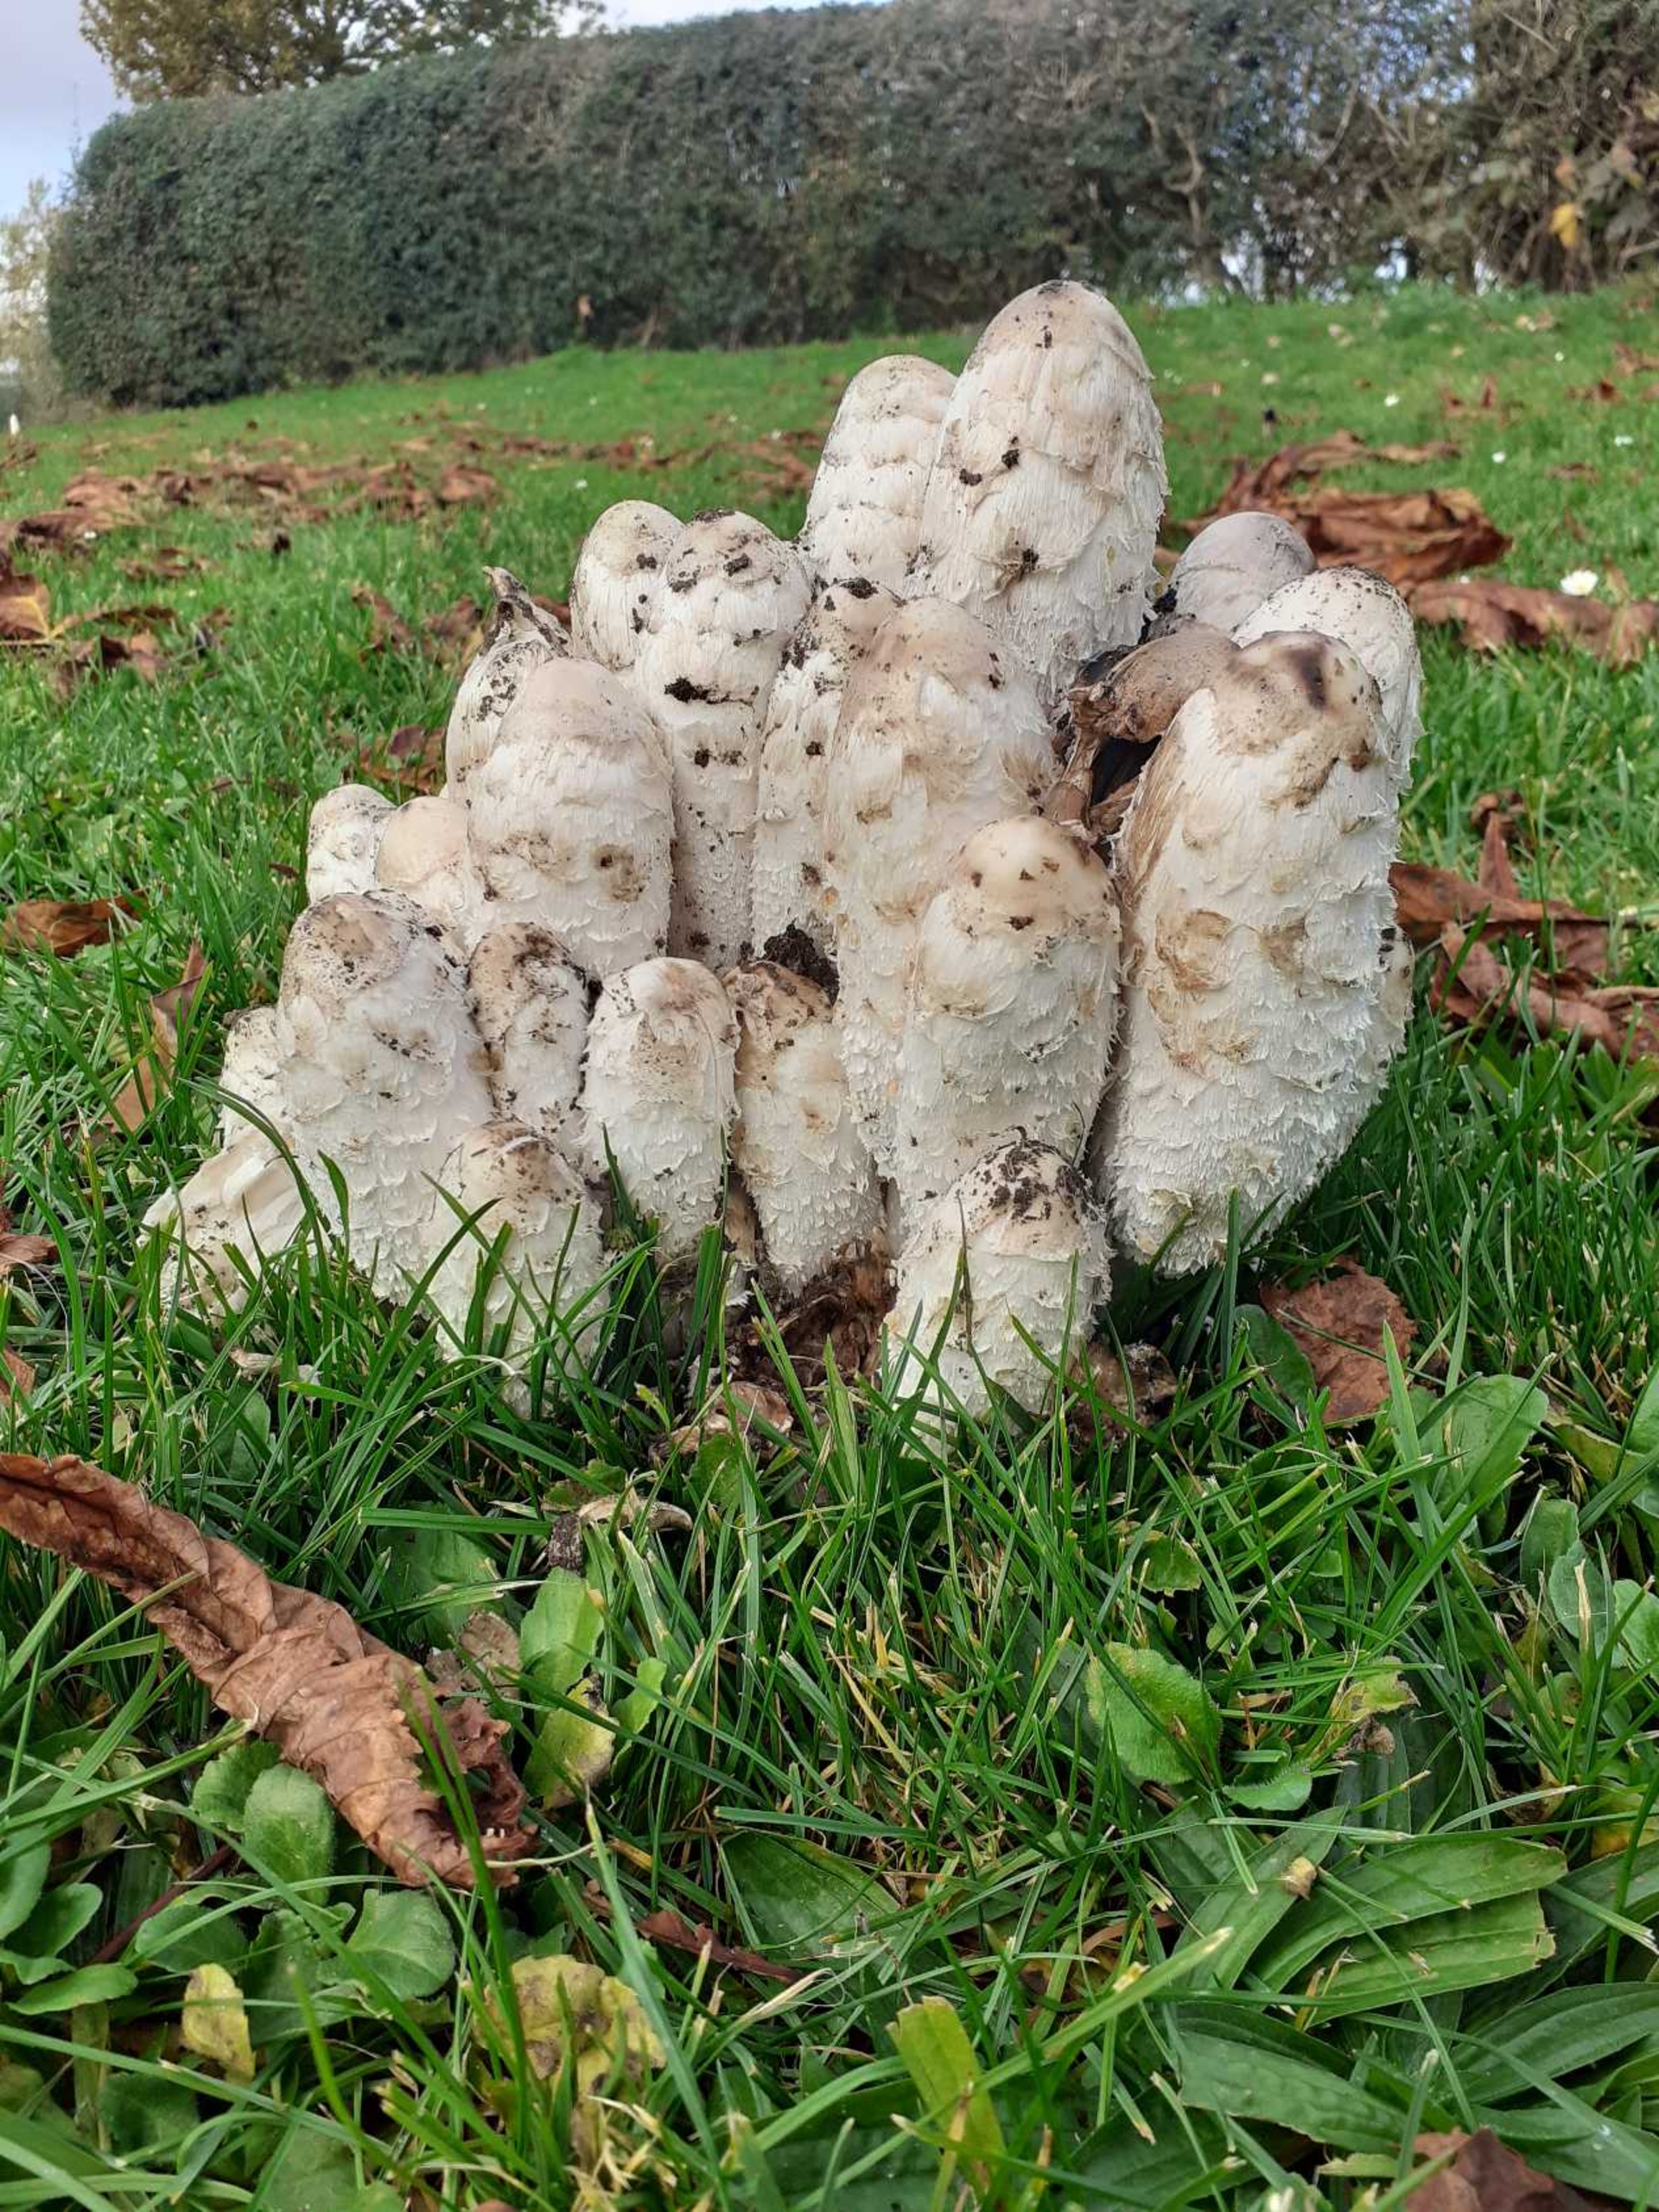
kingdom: Fungi
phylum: Basidiomycota
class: Agaricomycetes
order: Agaricales
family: Agaricaceae
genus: Coprinus
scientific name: Coprinus comatus
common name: Stor parykhat
